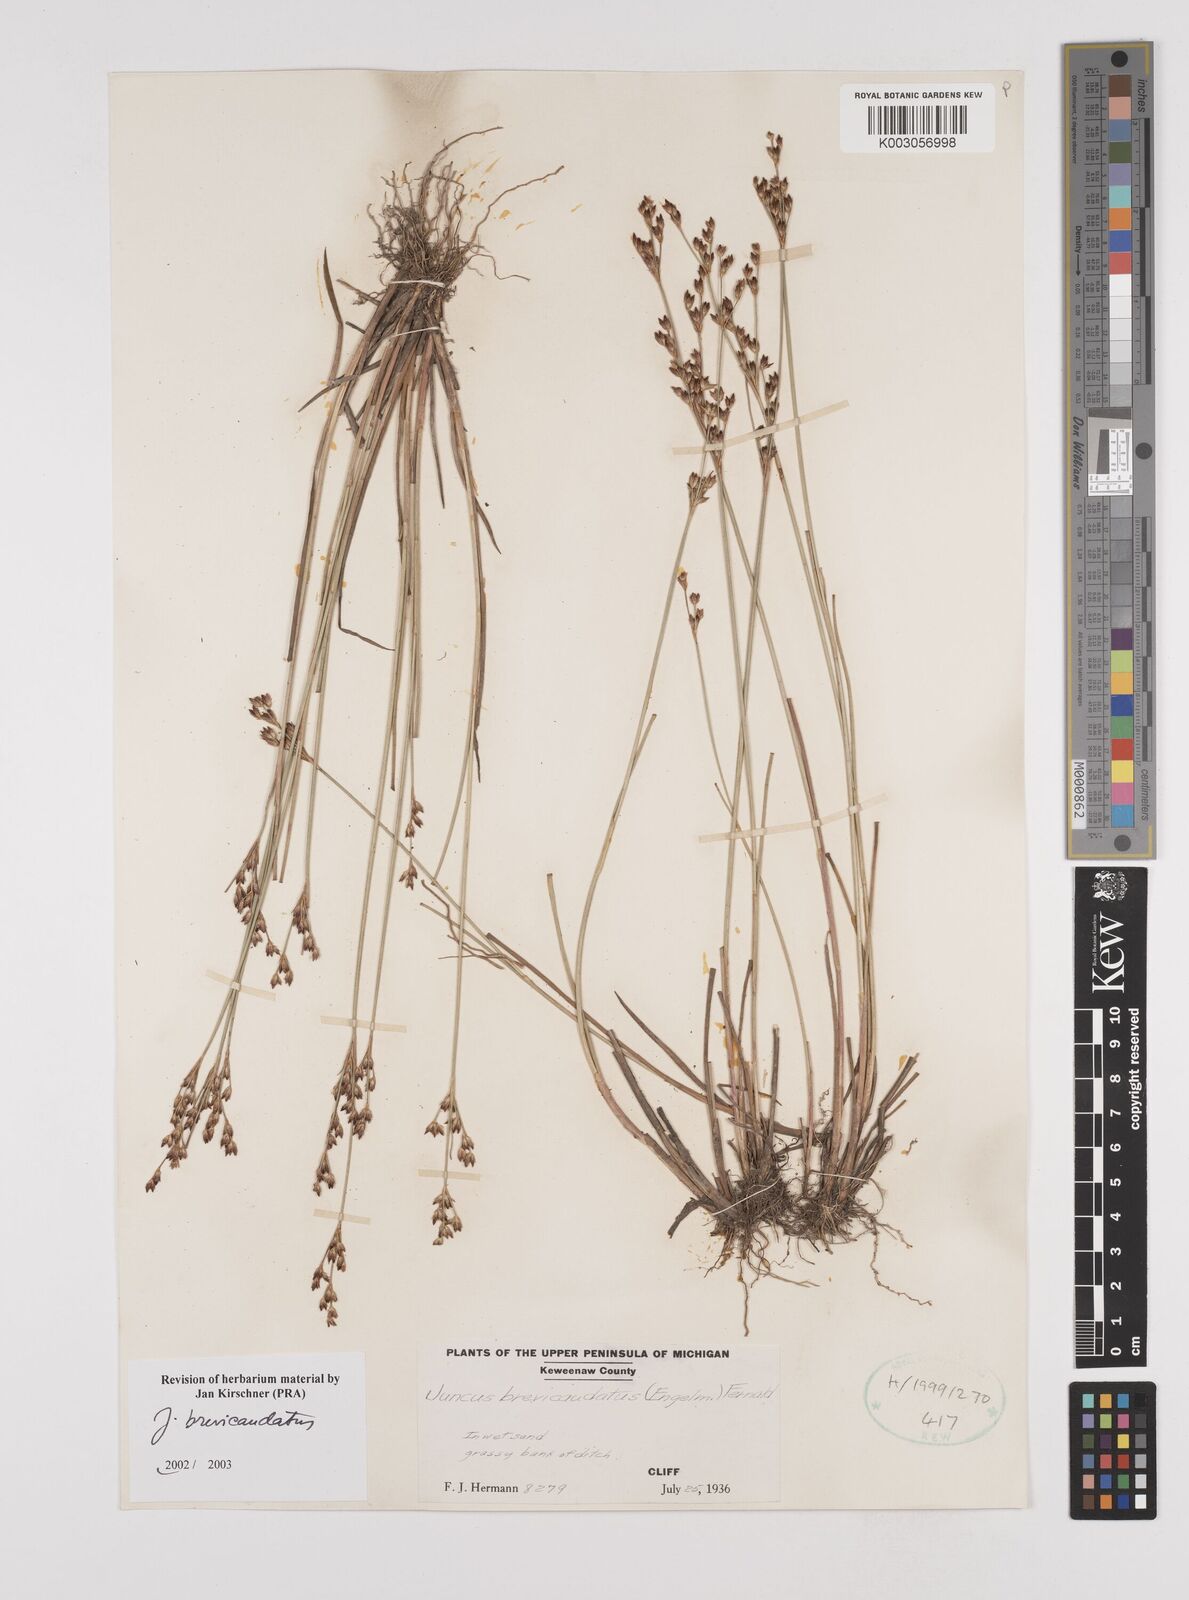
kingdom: Plantae
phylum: Tracheophyta
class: Liliopsida
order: Poales
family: Juncaceae
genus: Juncus
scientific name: Juncus brevicaudatus
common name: Narrow-panicle rush
